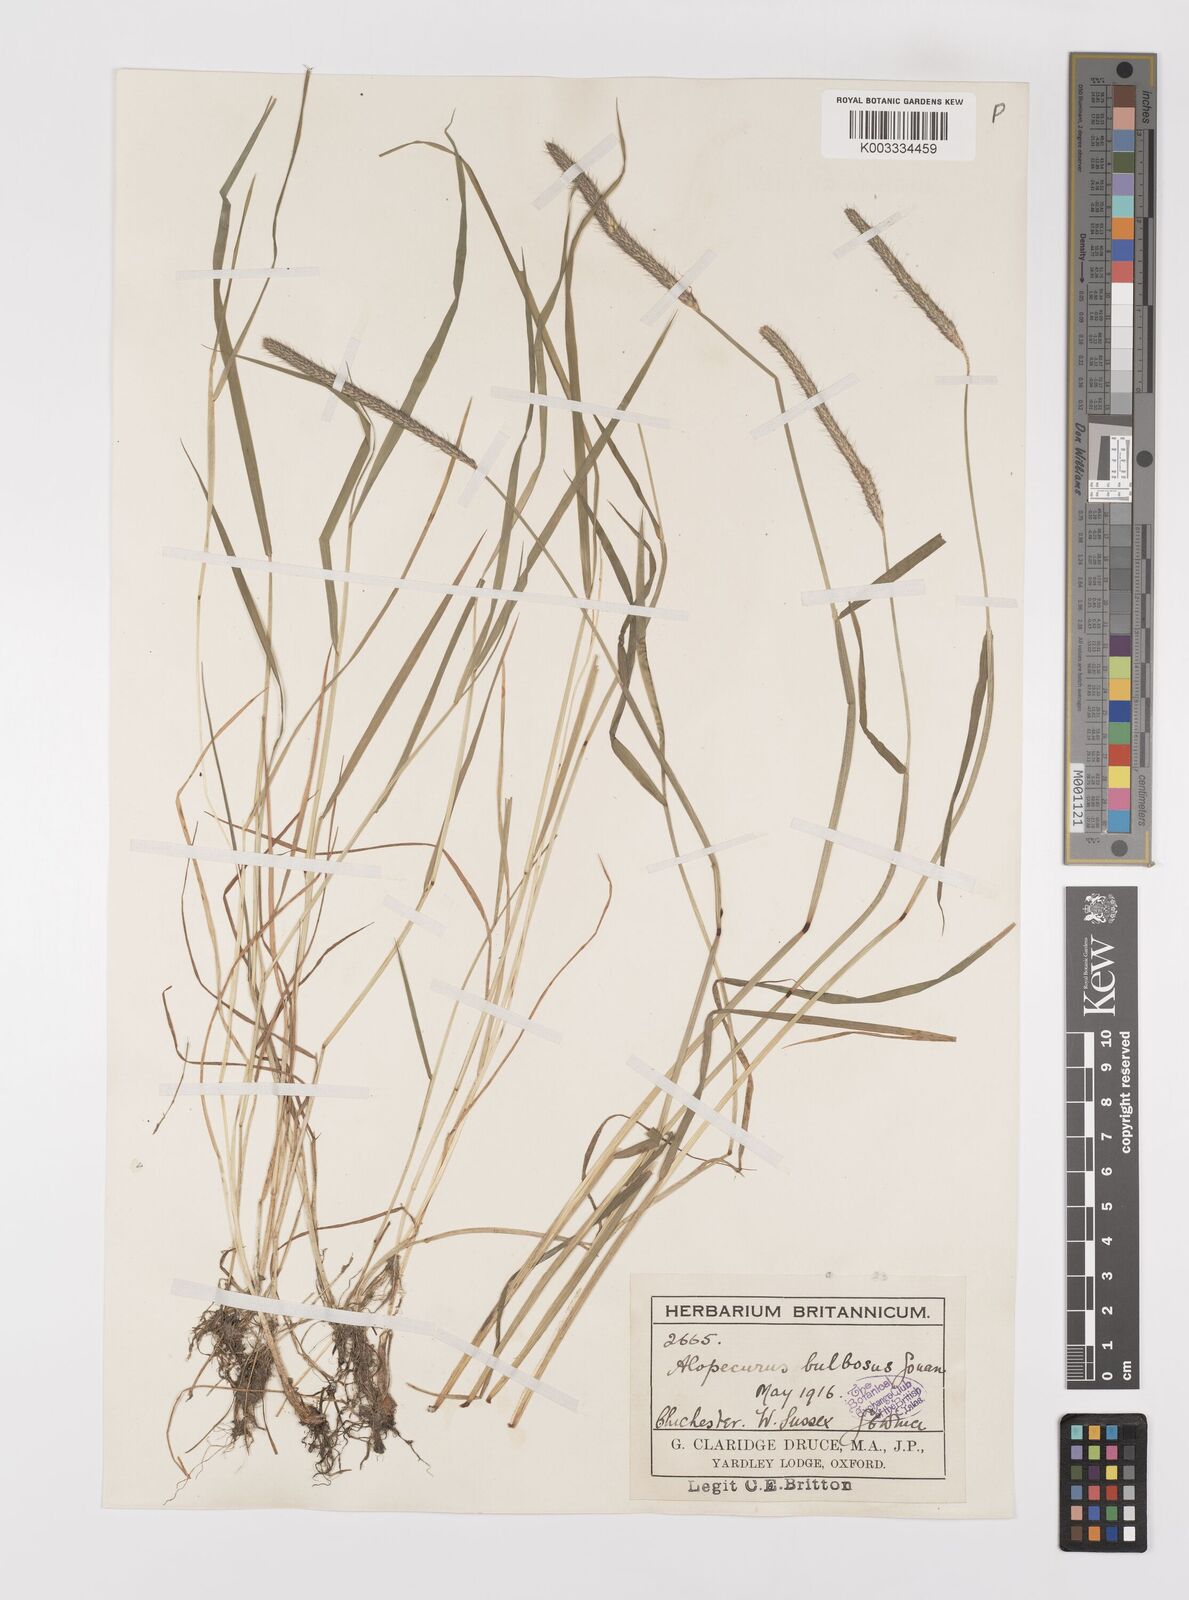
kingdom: Plantae
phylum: Tracheophyta
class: Liliopsida
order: Poales
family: Poaceae
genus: Alopecurus
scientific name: Alopecurus bulbosus
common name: Bulbous foxtail
